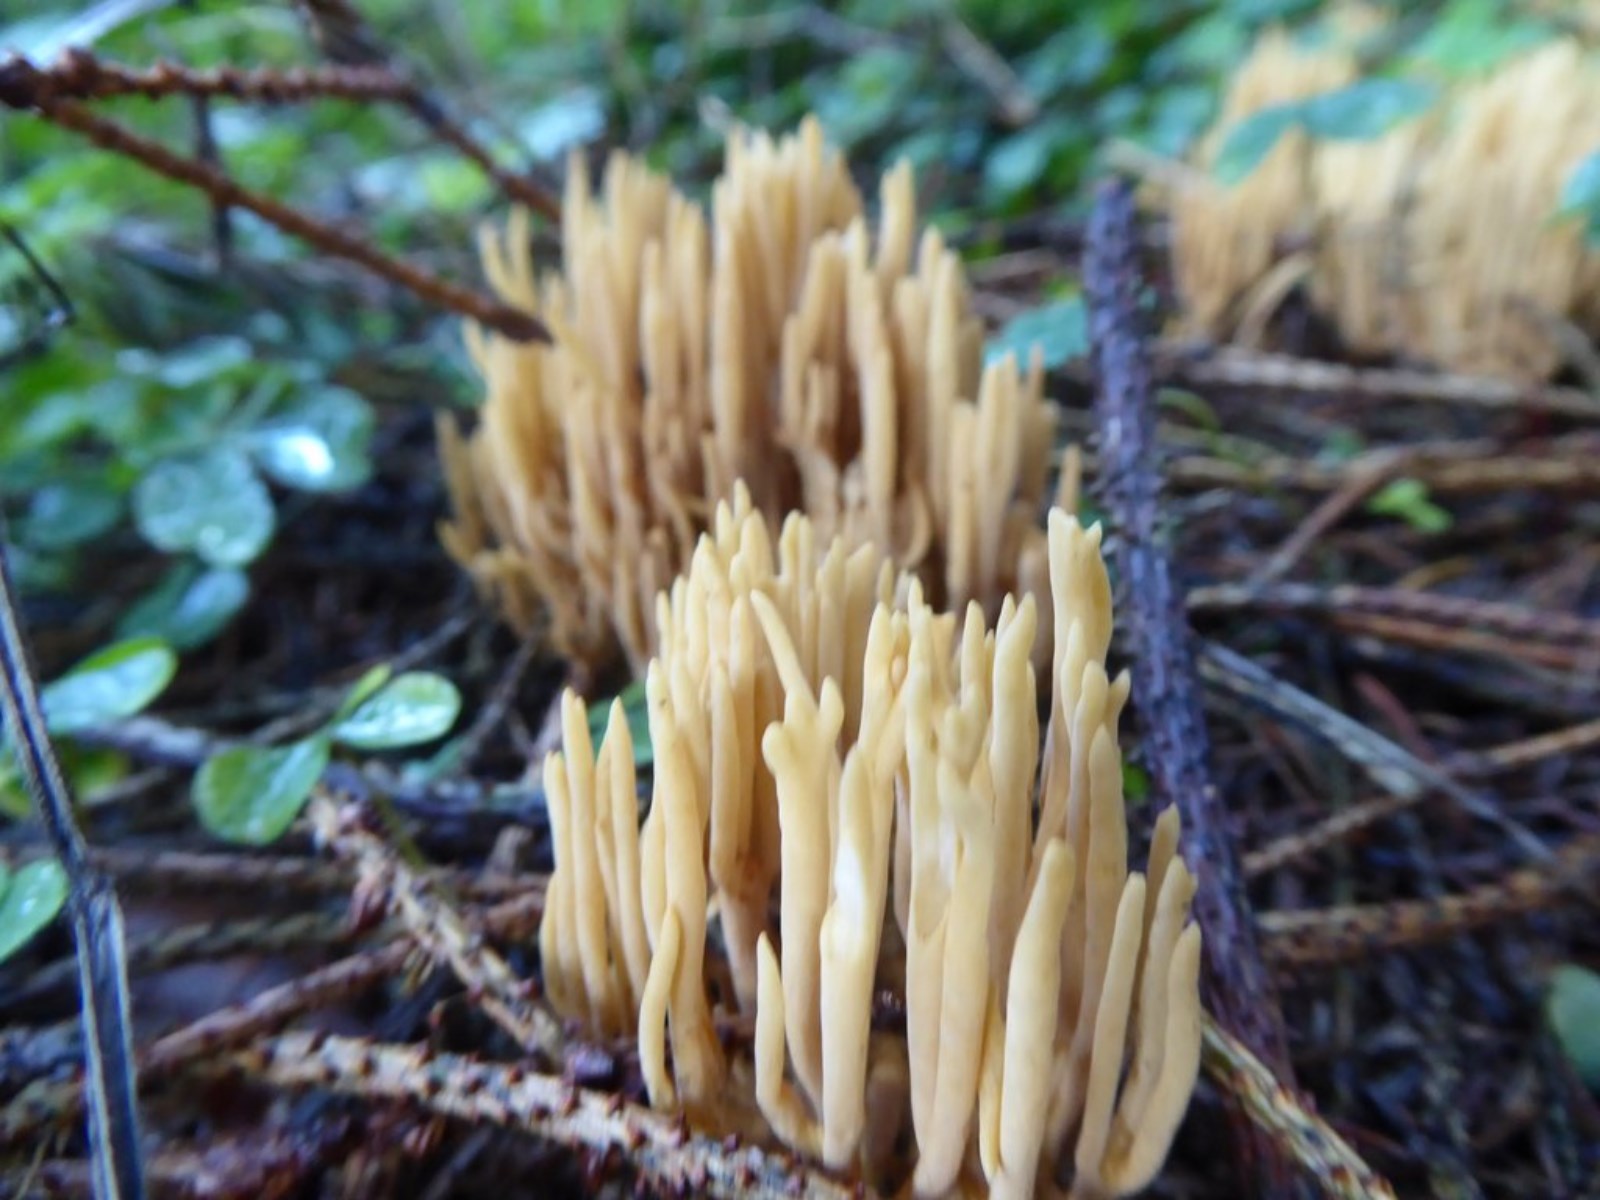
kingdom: Fungi
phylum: Basidiomycota
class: Agaricomycetes
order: Gomphales
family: Gomphaceae
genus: Phaeoclavulina
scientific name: Phaeoclavulina eumorpha
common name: gran-koralsvamp
